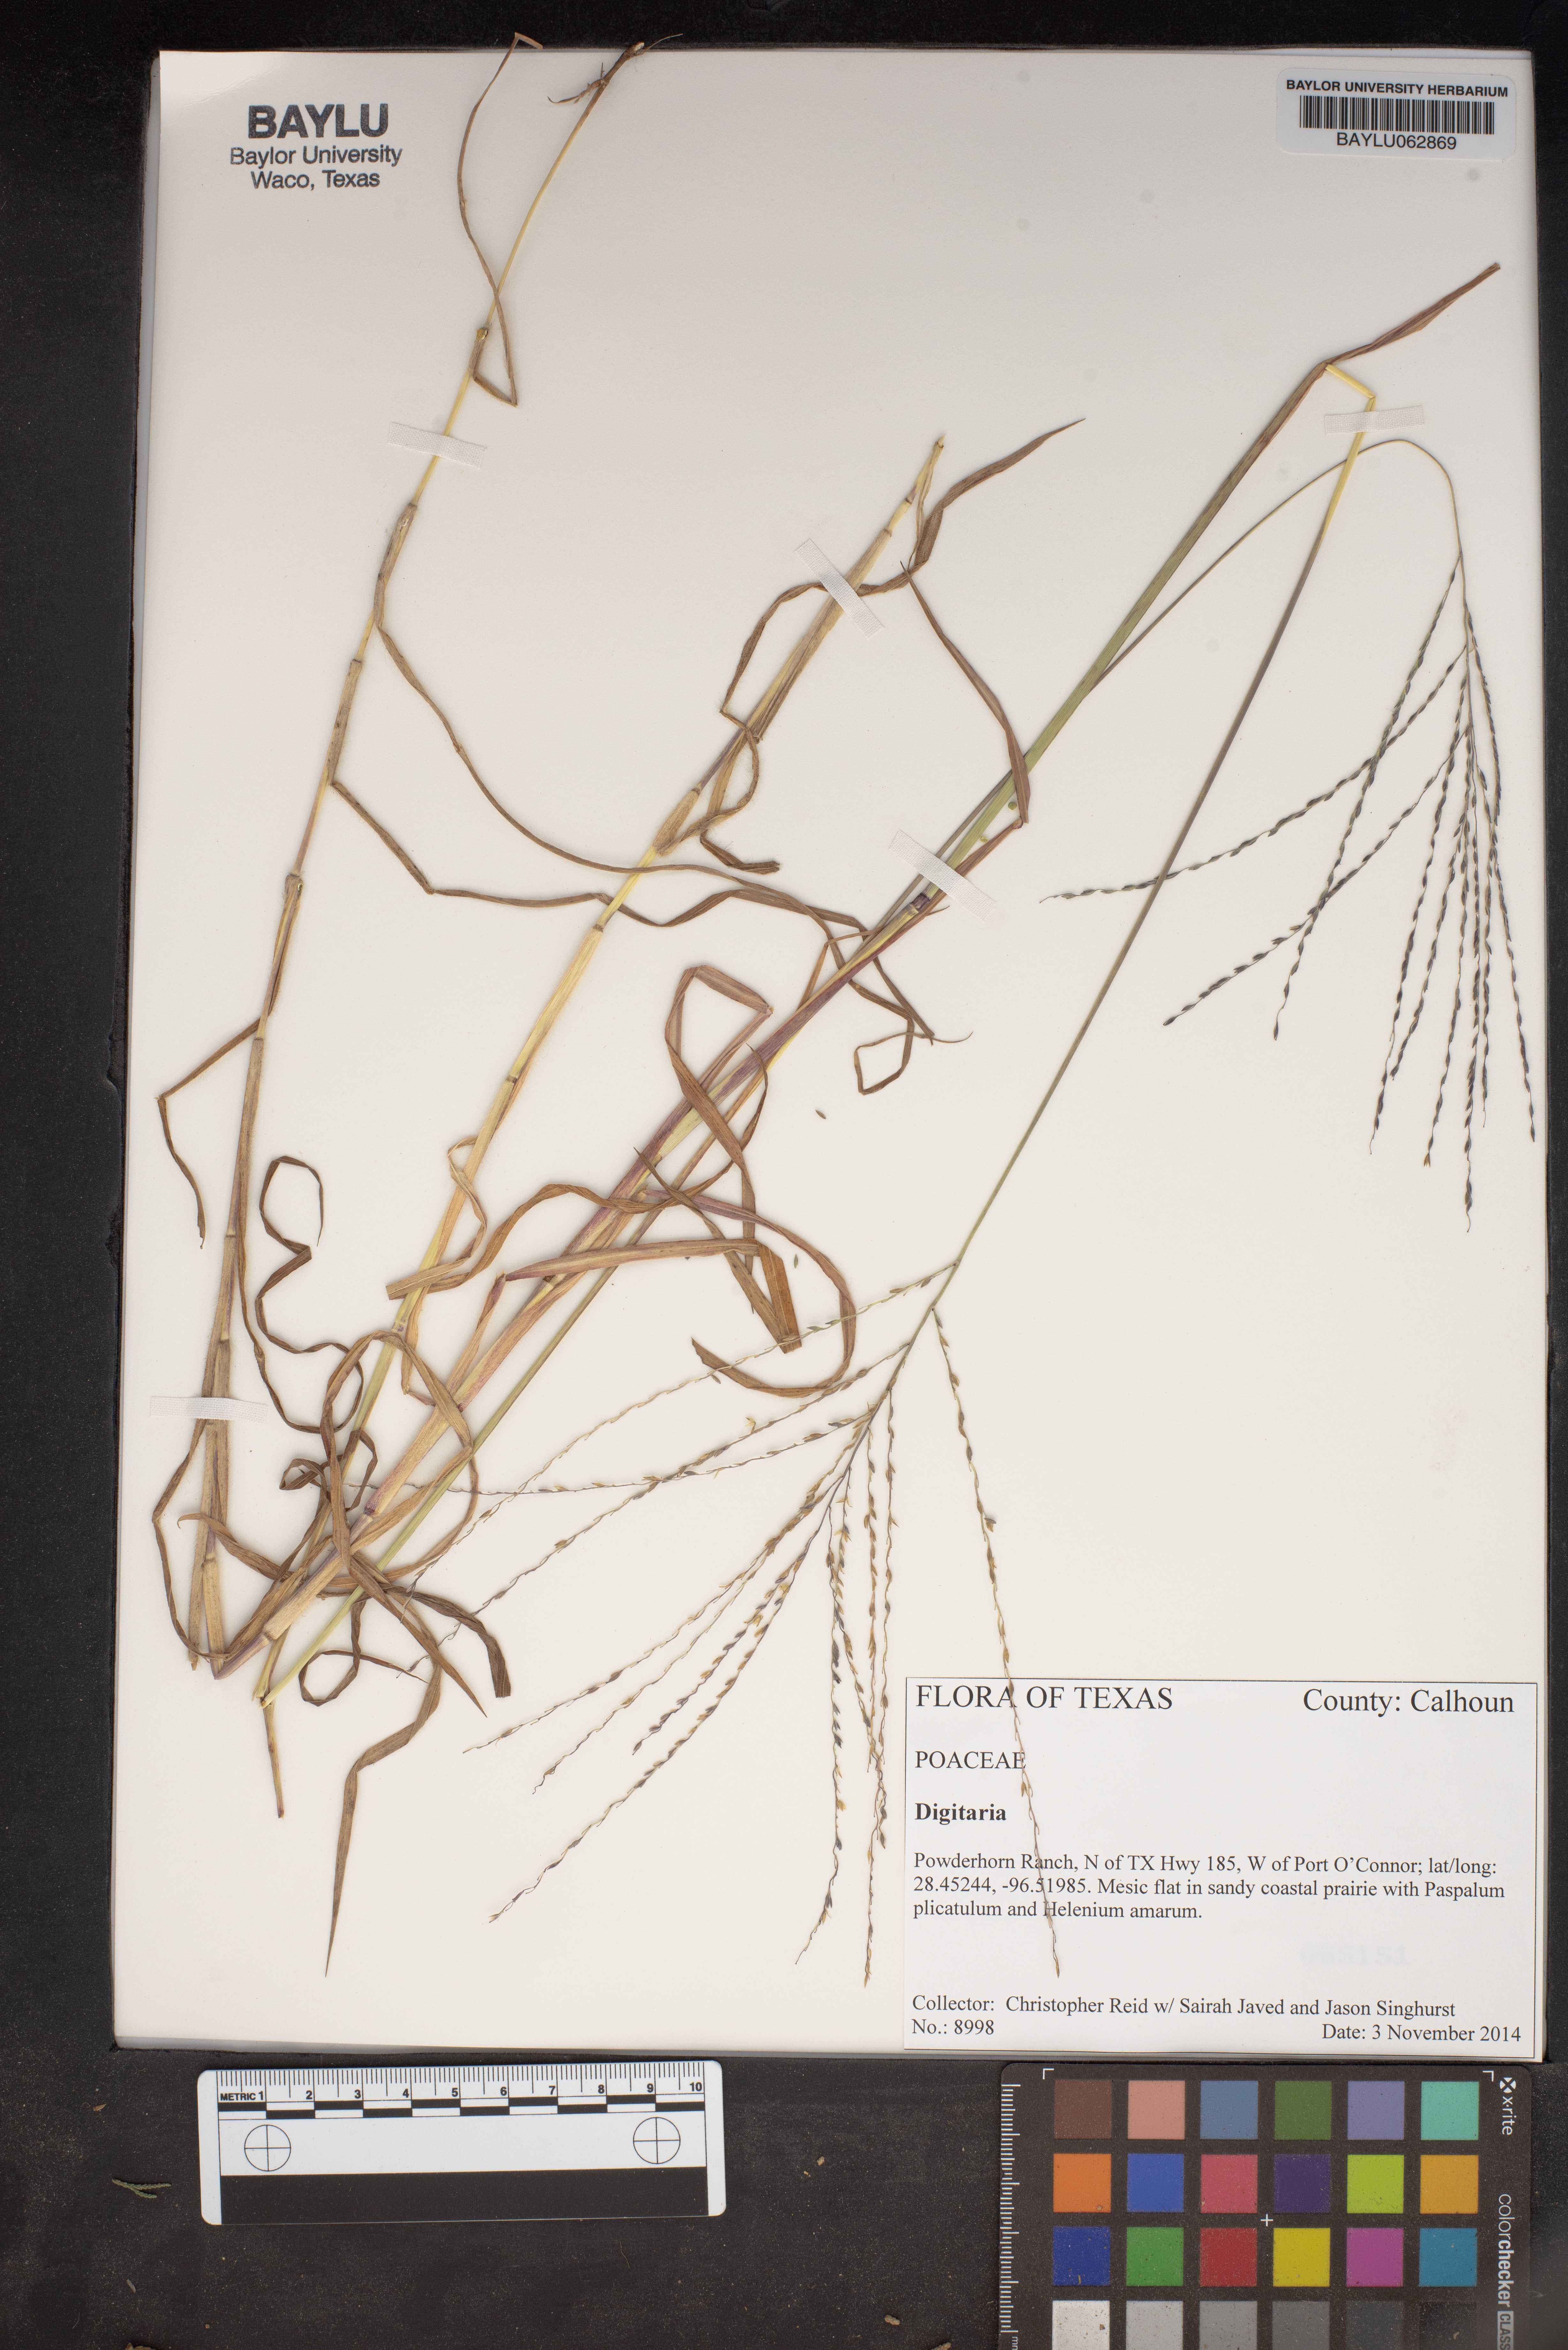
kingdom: Plantae
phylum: Tracheophyta
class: Liliopsida
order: Poales
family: Poaceae
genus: Digitaria
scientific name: Digitaria
